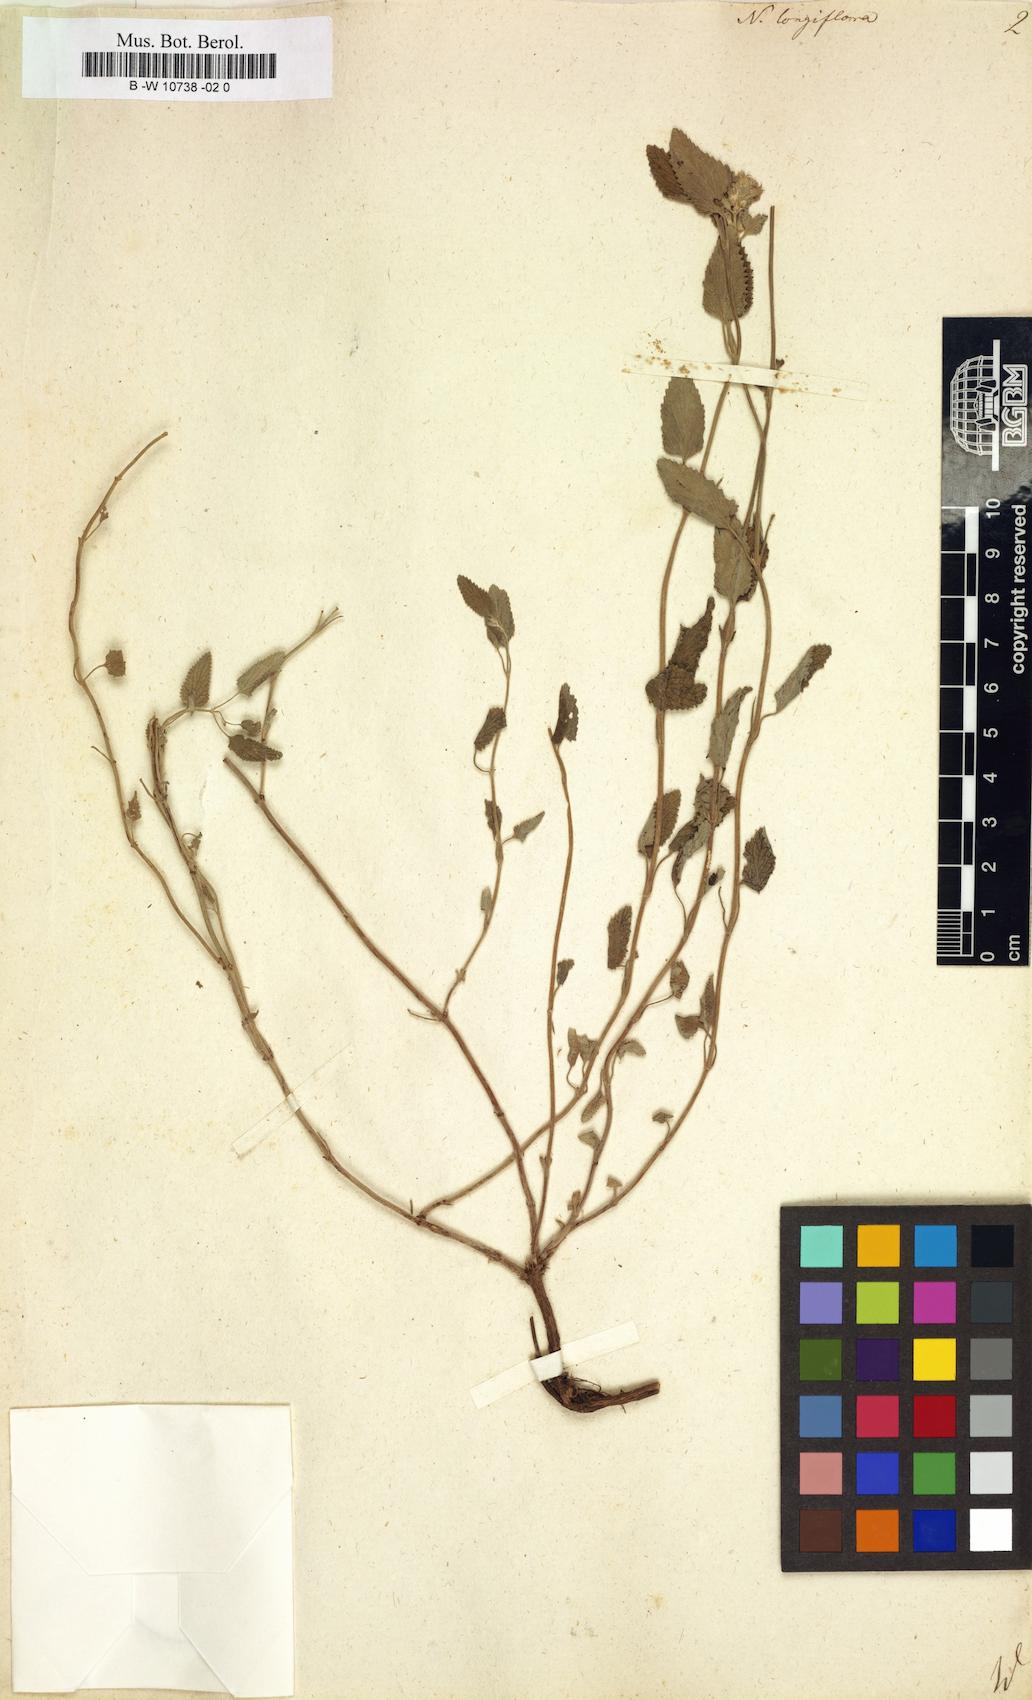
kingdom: Plantae
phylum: Tracheophyta
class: Magnoliopsida
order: Lamiales
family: Lamiaceae
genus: Nepeta
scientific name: Nepeta longiflora
